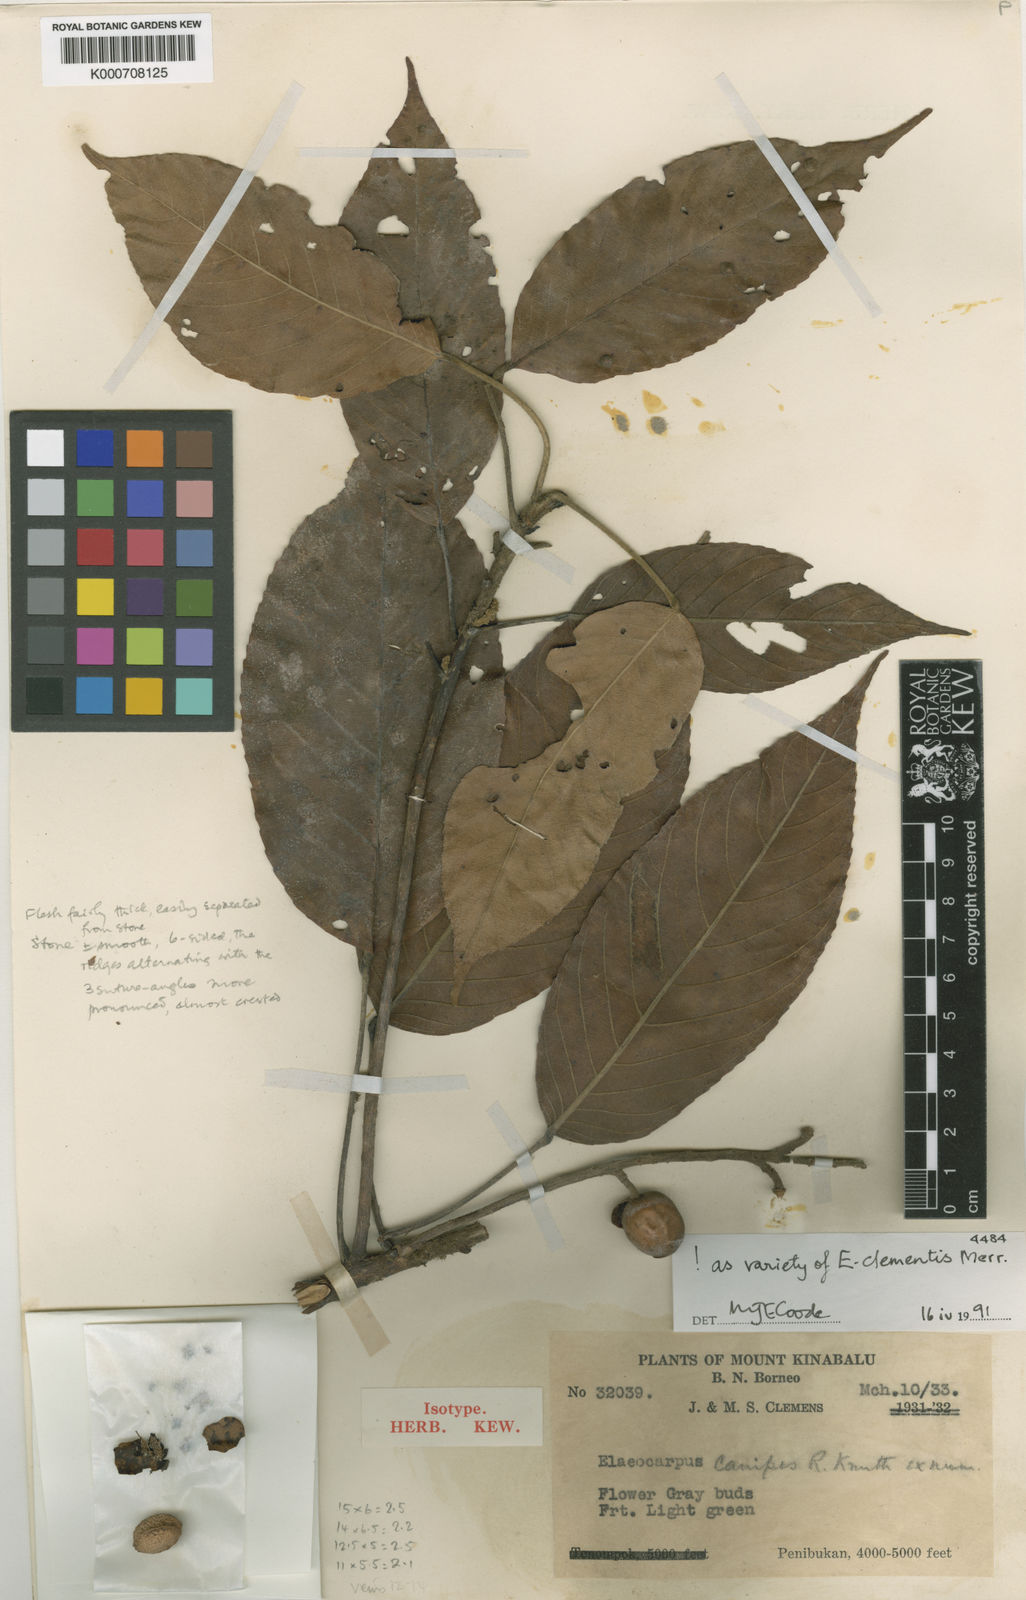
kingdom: Plantae
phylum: Tracheophyta
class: Magnoliopsida
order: Oxalidales
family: Elaeocarpaceae
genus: Elaeocarpus
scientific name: Elaeocarpus clementis
